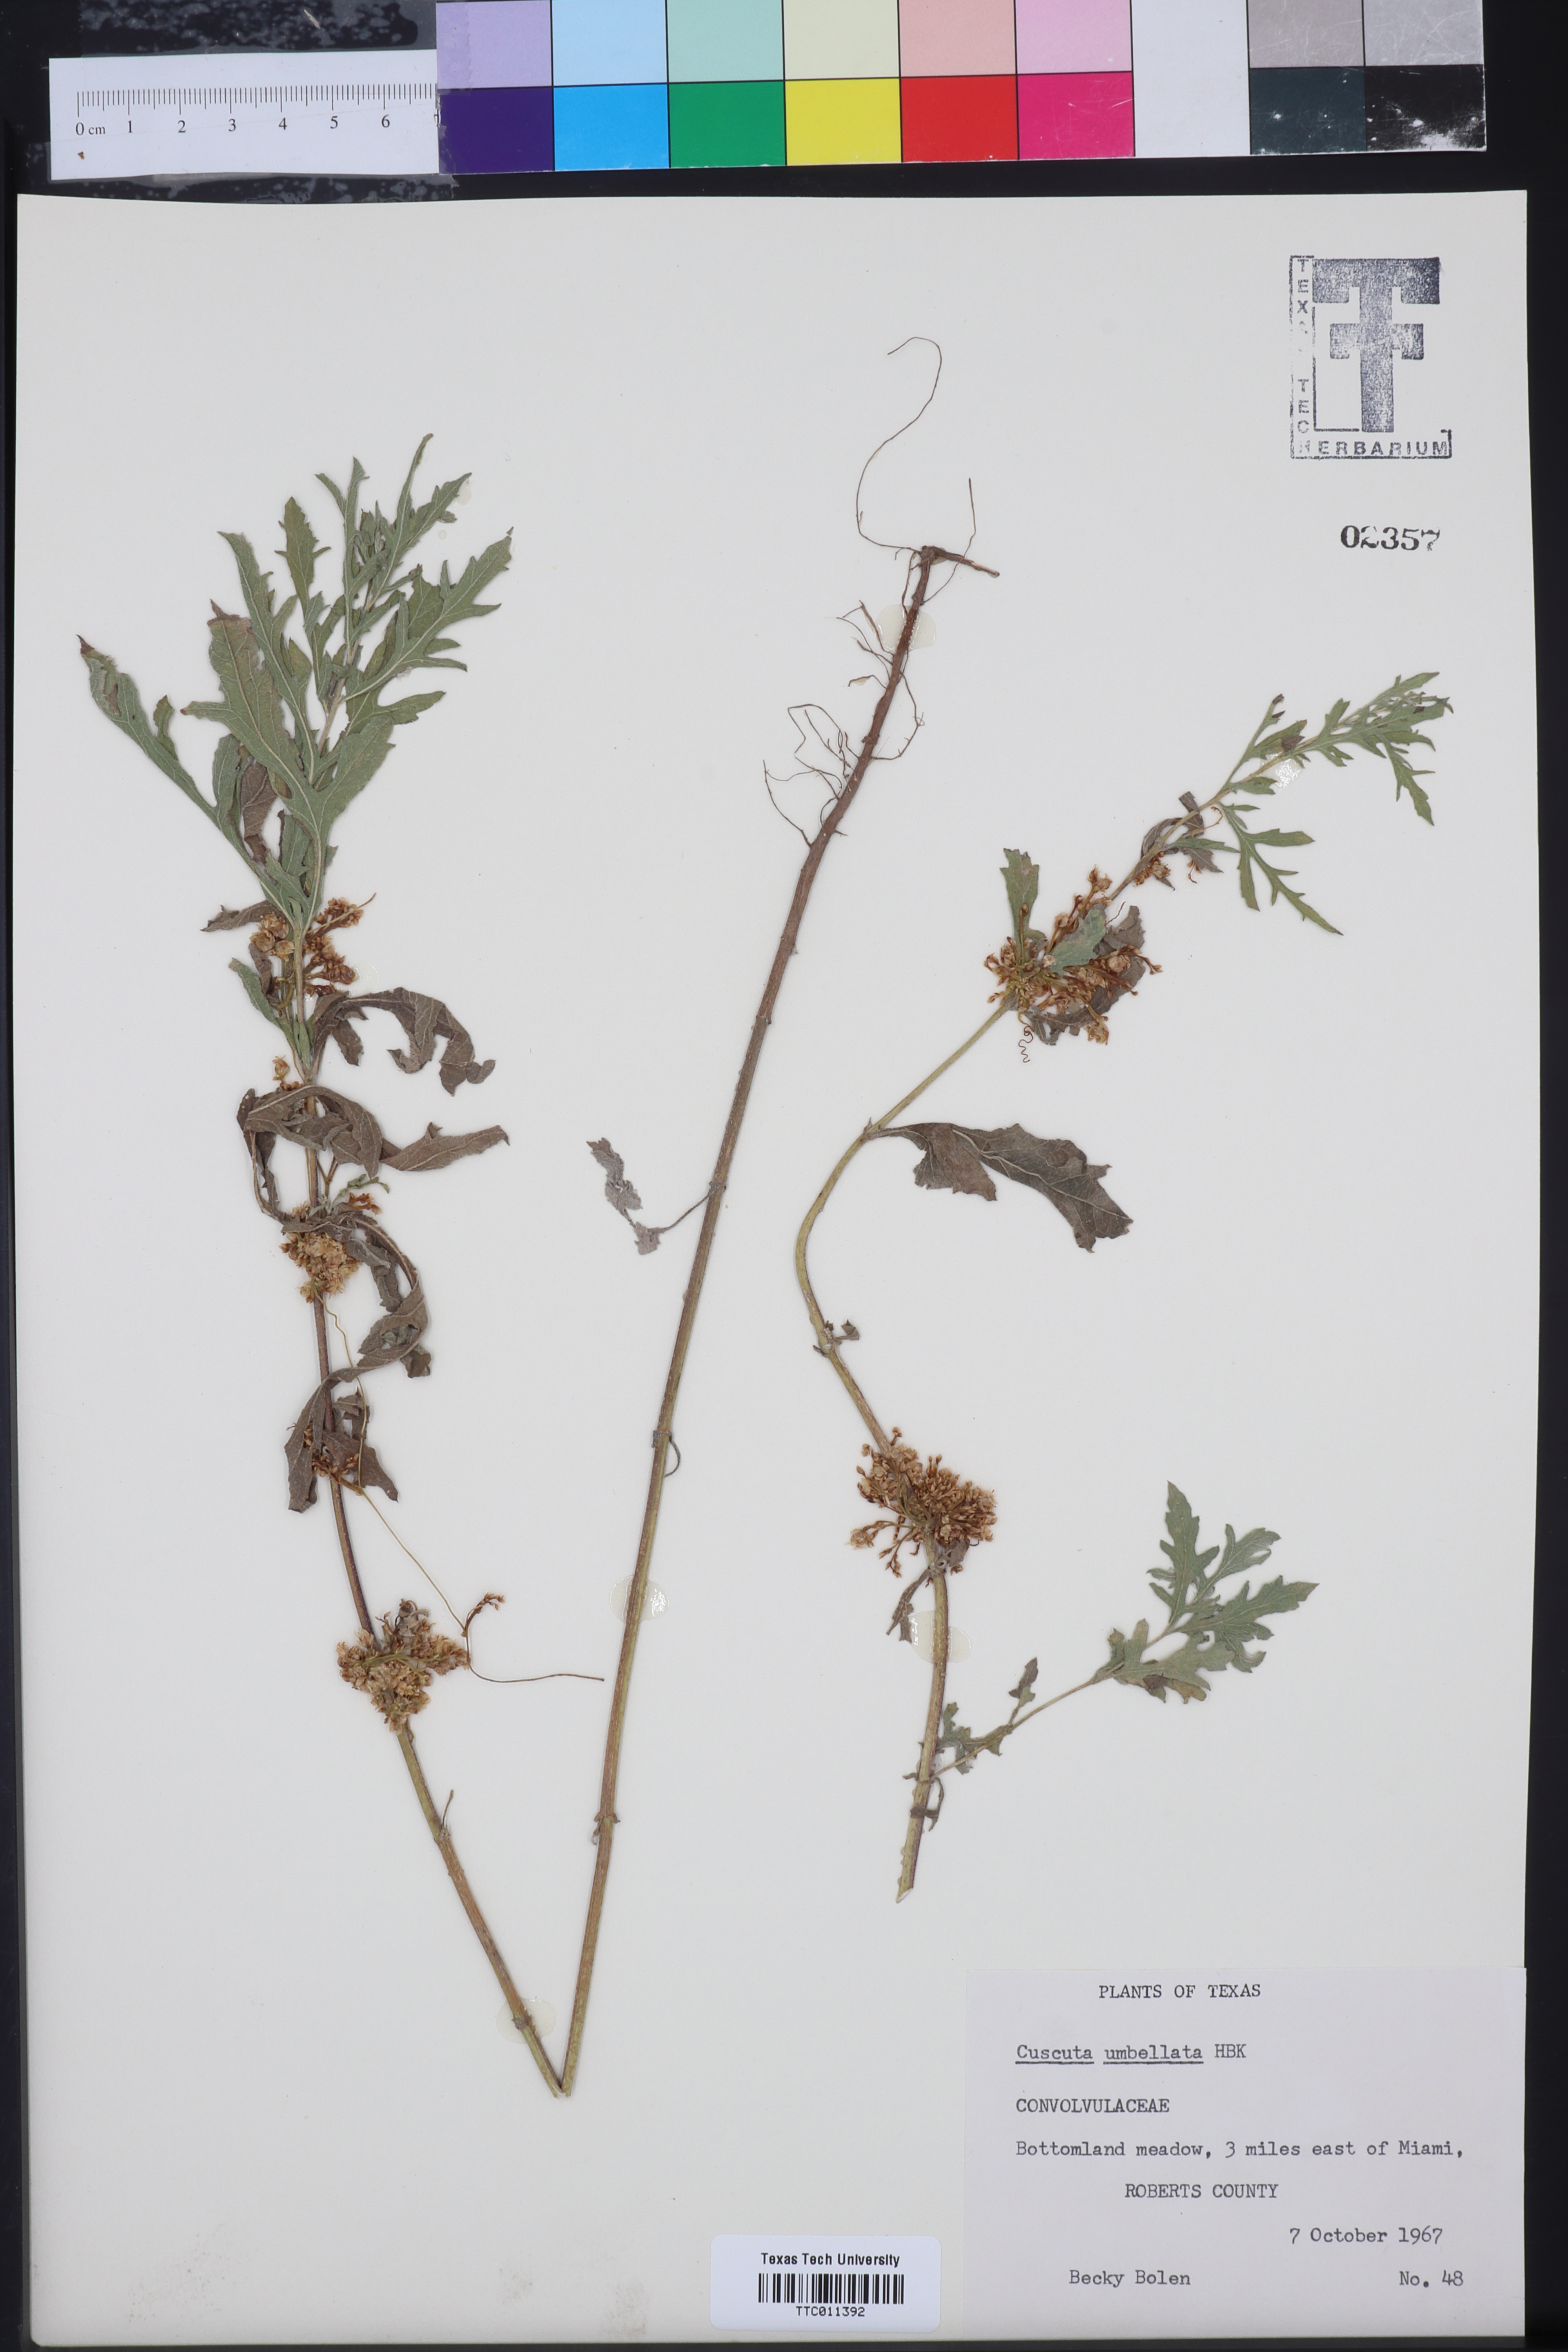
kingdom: Plantae
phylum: Tracheophyta
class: Magnoliopsida
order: Solanales
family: Convolvulaceae
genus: Cuscuta
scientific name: Cuscuta umbellata
